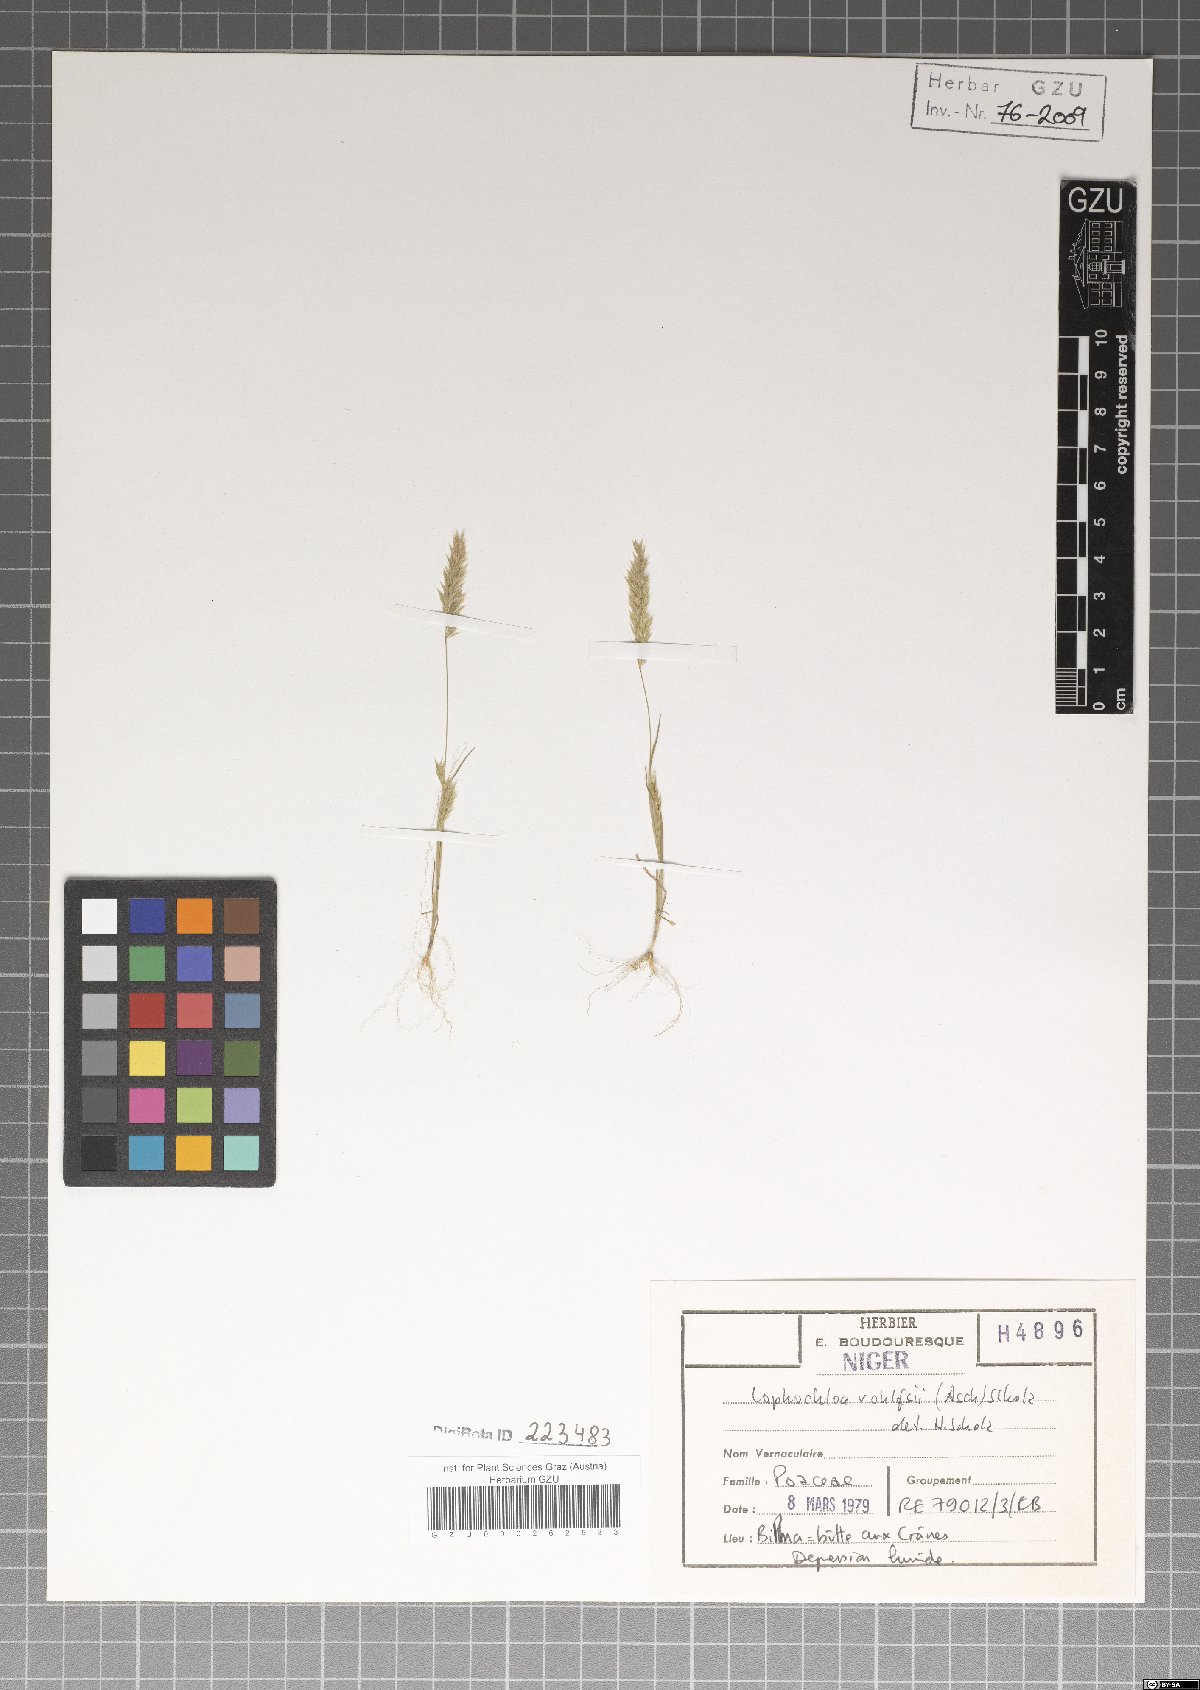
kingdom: Plantae
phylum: Tracheophyta
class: Liliopsida
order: Poales
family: Poaceae
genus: Rostraria
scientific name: Rostraria rohlfsii
